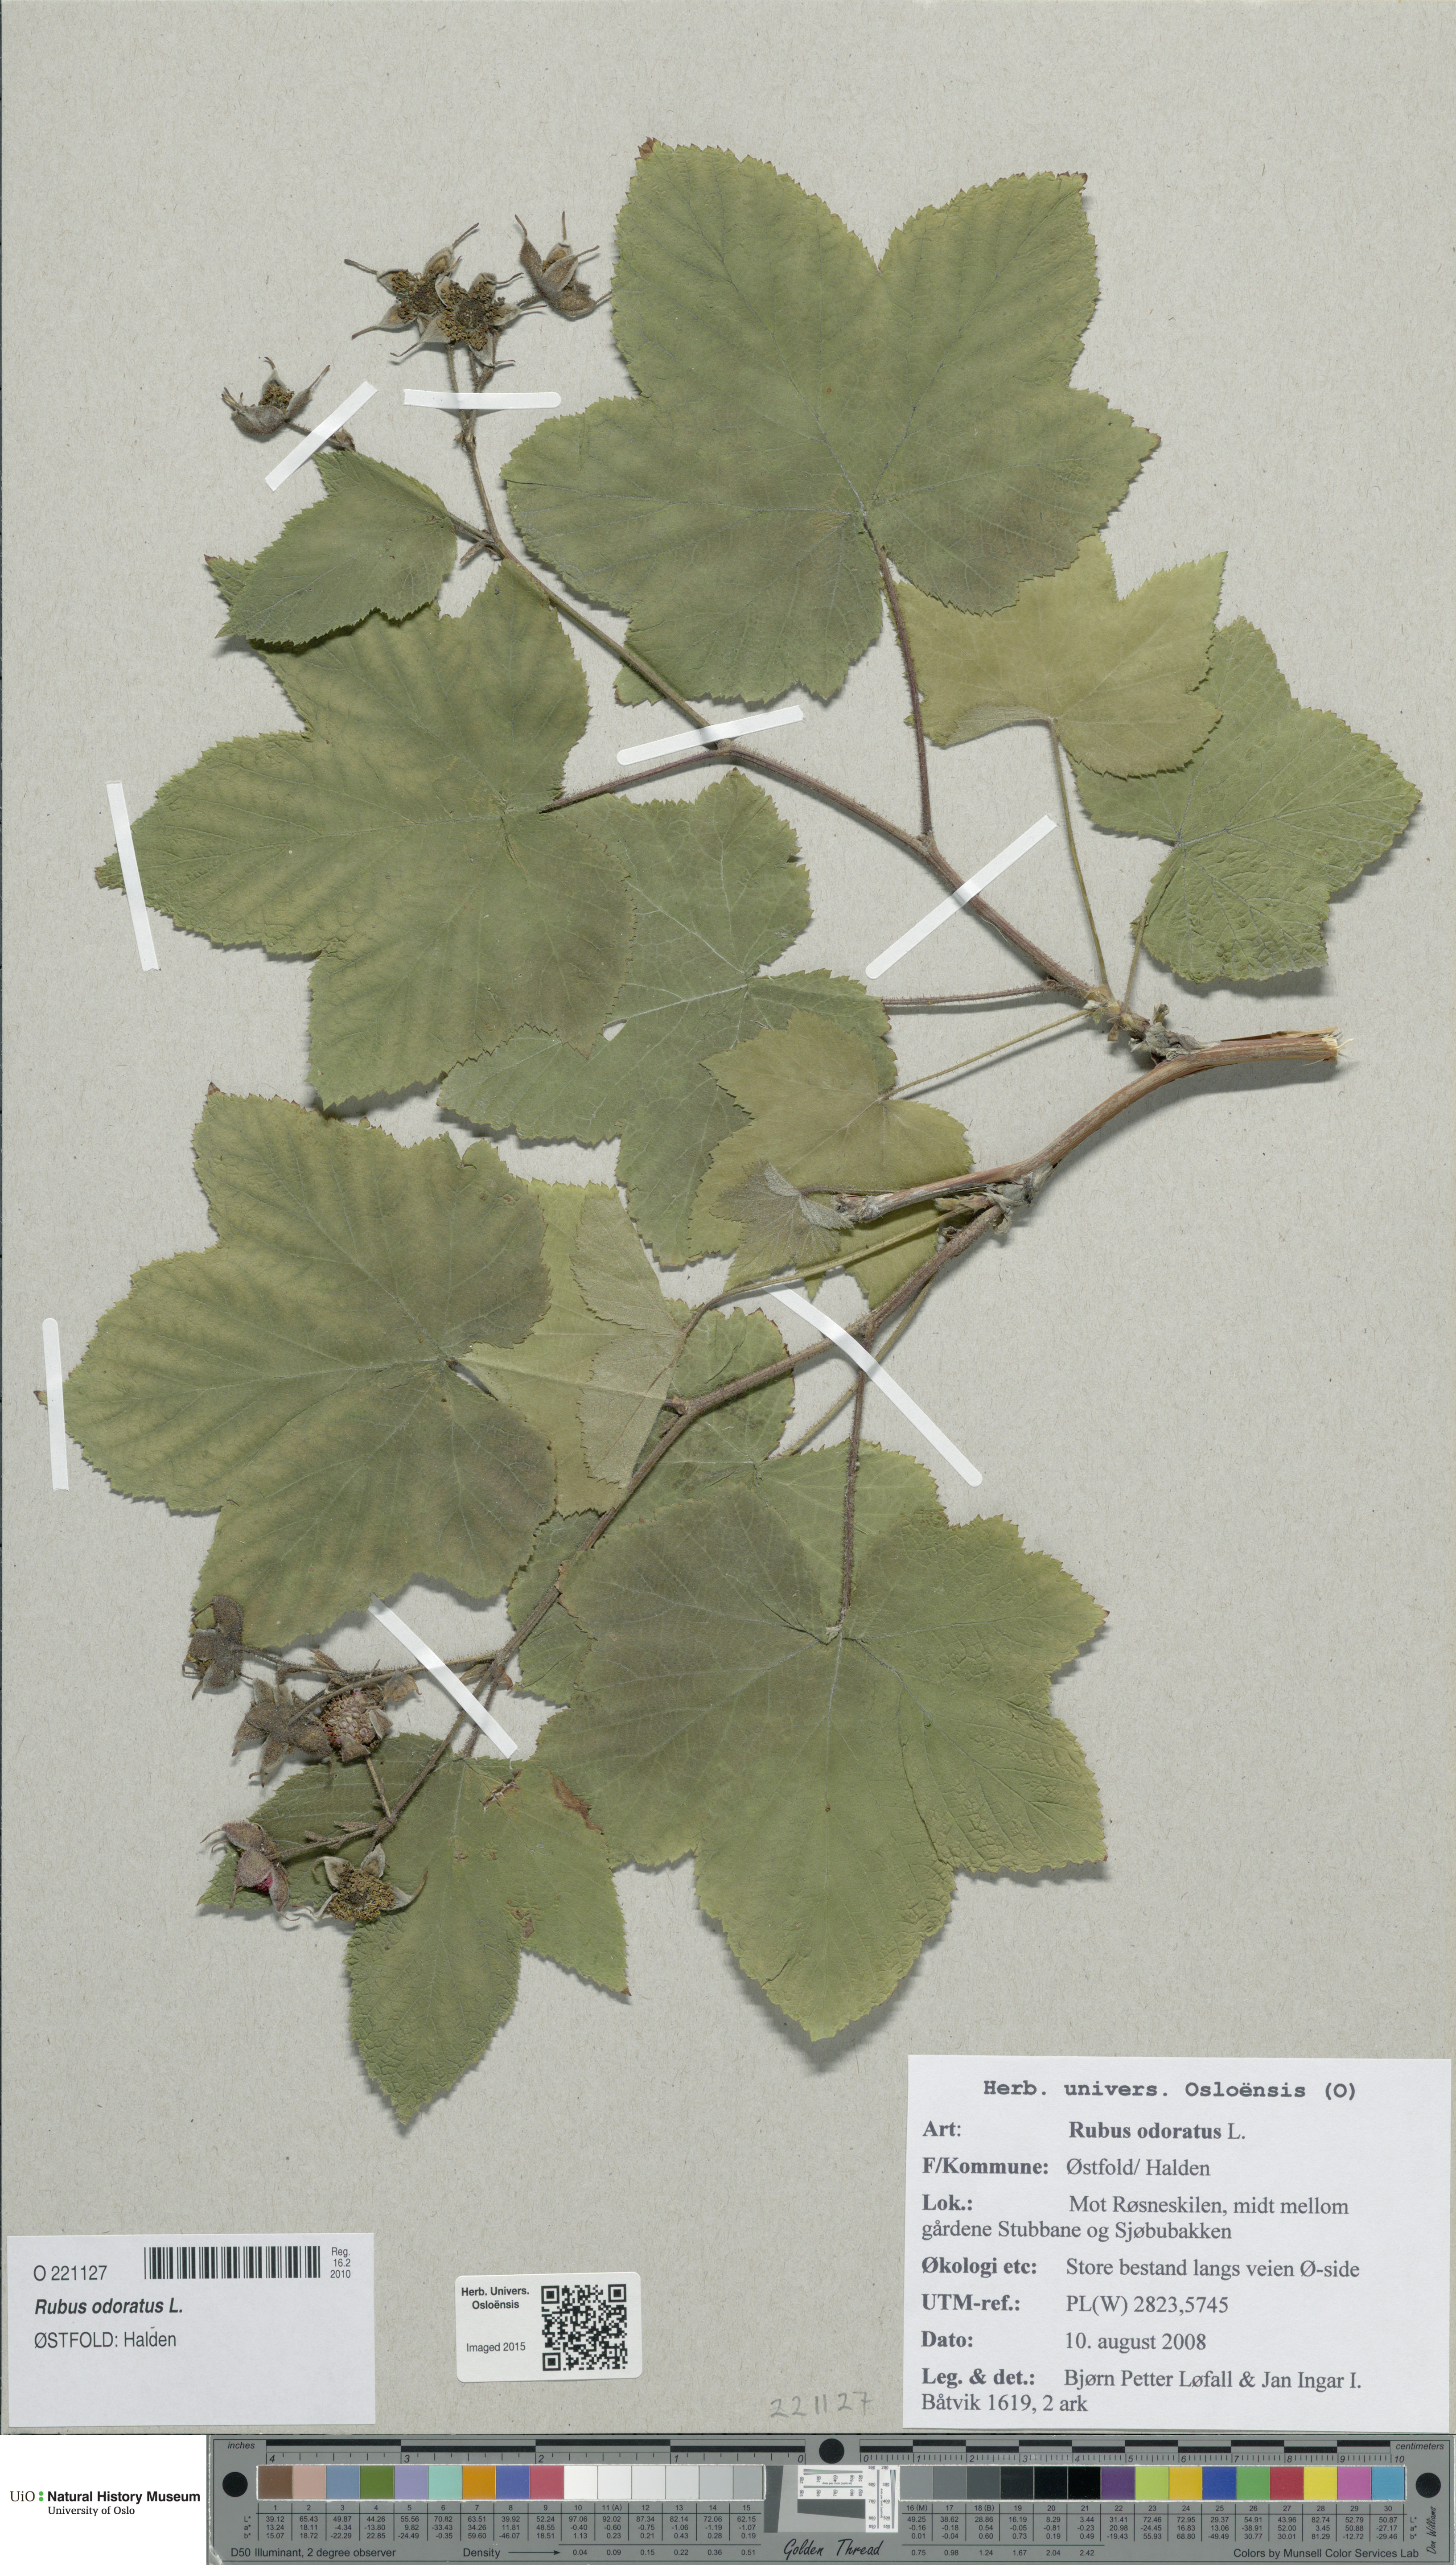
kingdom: Plantae
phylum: Tracheophyta
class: Magnoliopsida
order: Rosales
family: Rosaceae
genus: Rubus
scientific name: Rubus odoratus
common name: Purple-flowered raspberry
